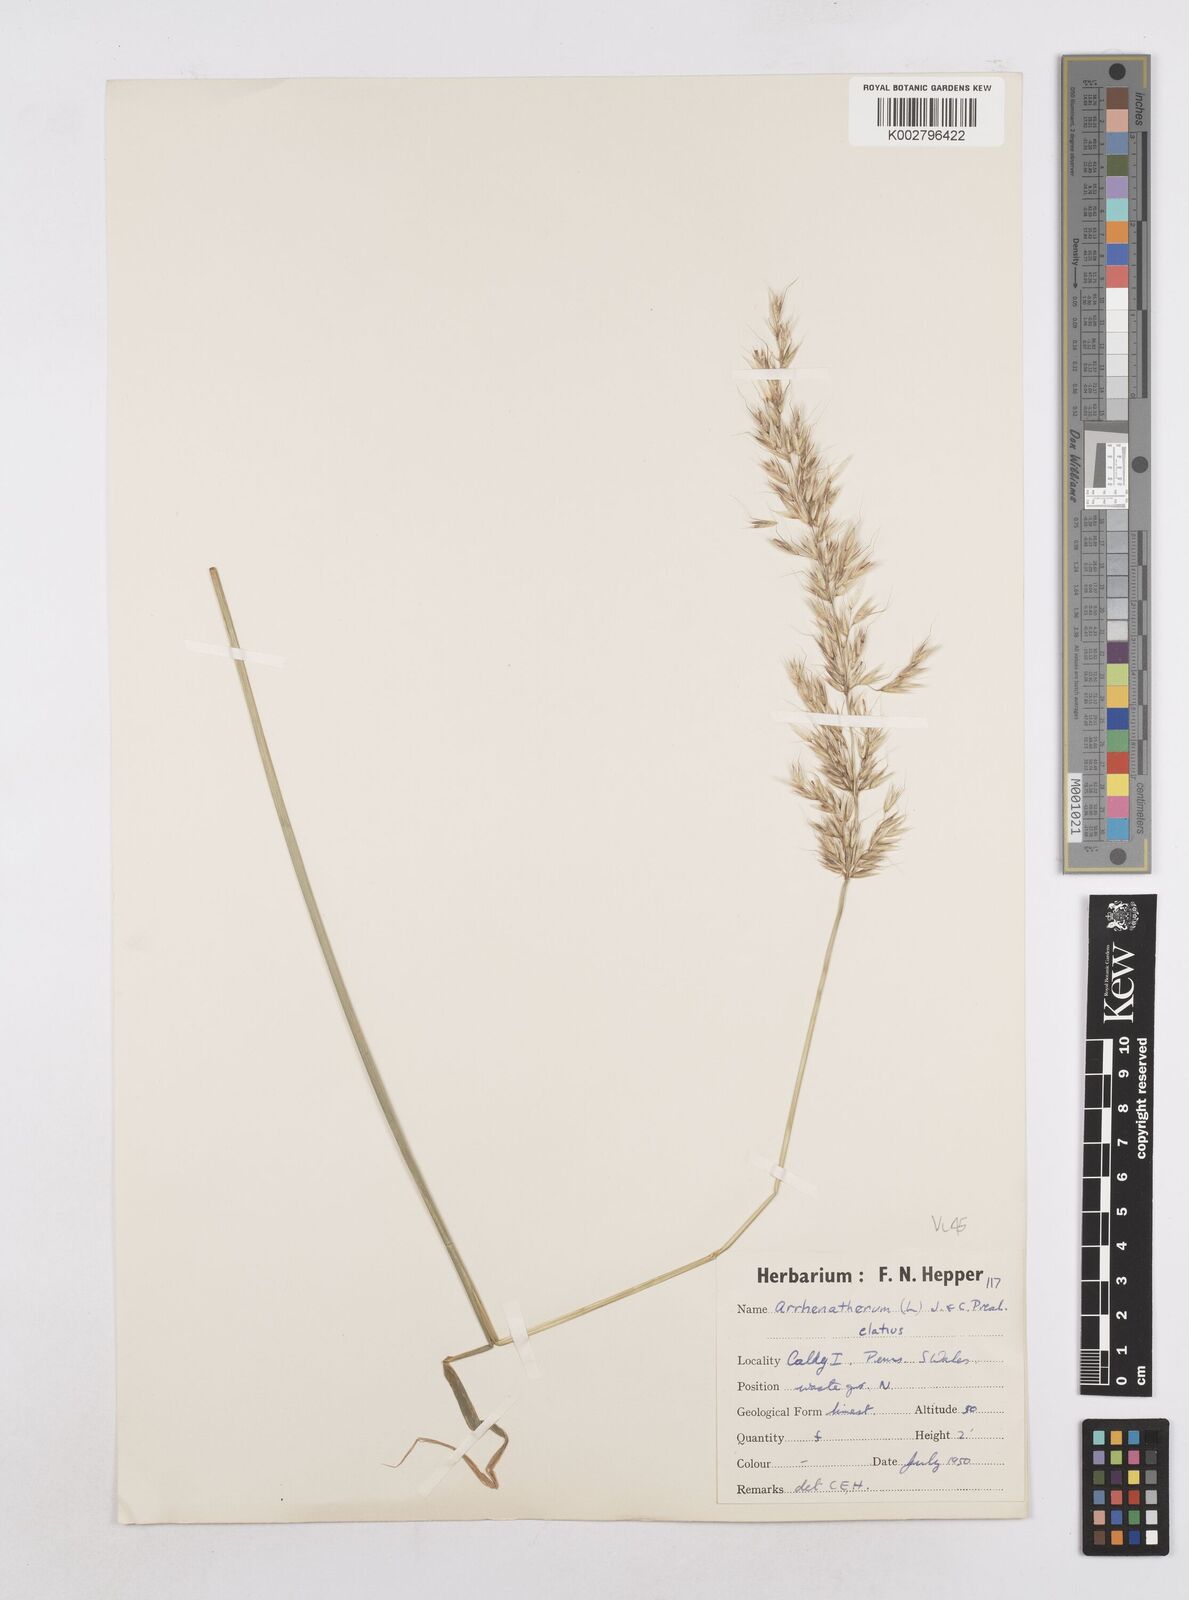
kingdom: Plantae
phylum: Tracheophyta
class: Liliopsida
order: Poales
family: Poaceae
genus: Arrhenatherum
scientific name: Arrhenatherum elatius
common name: Tall oatgrass
